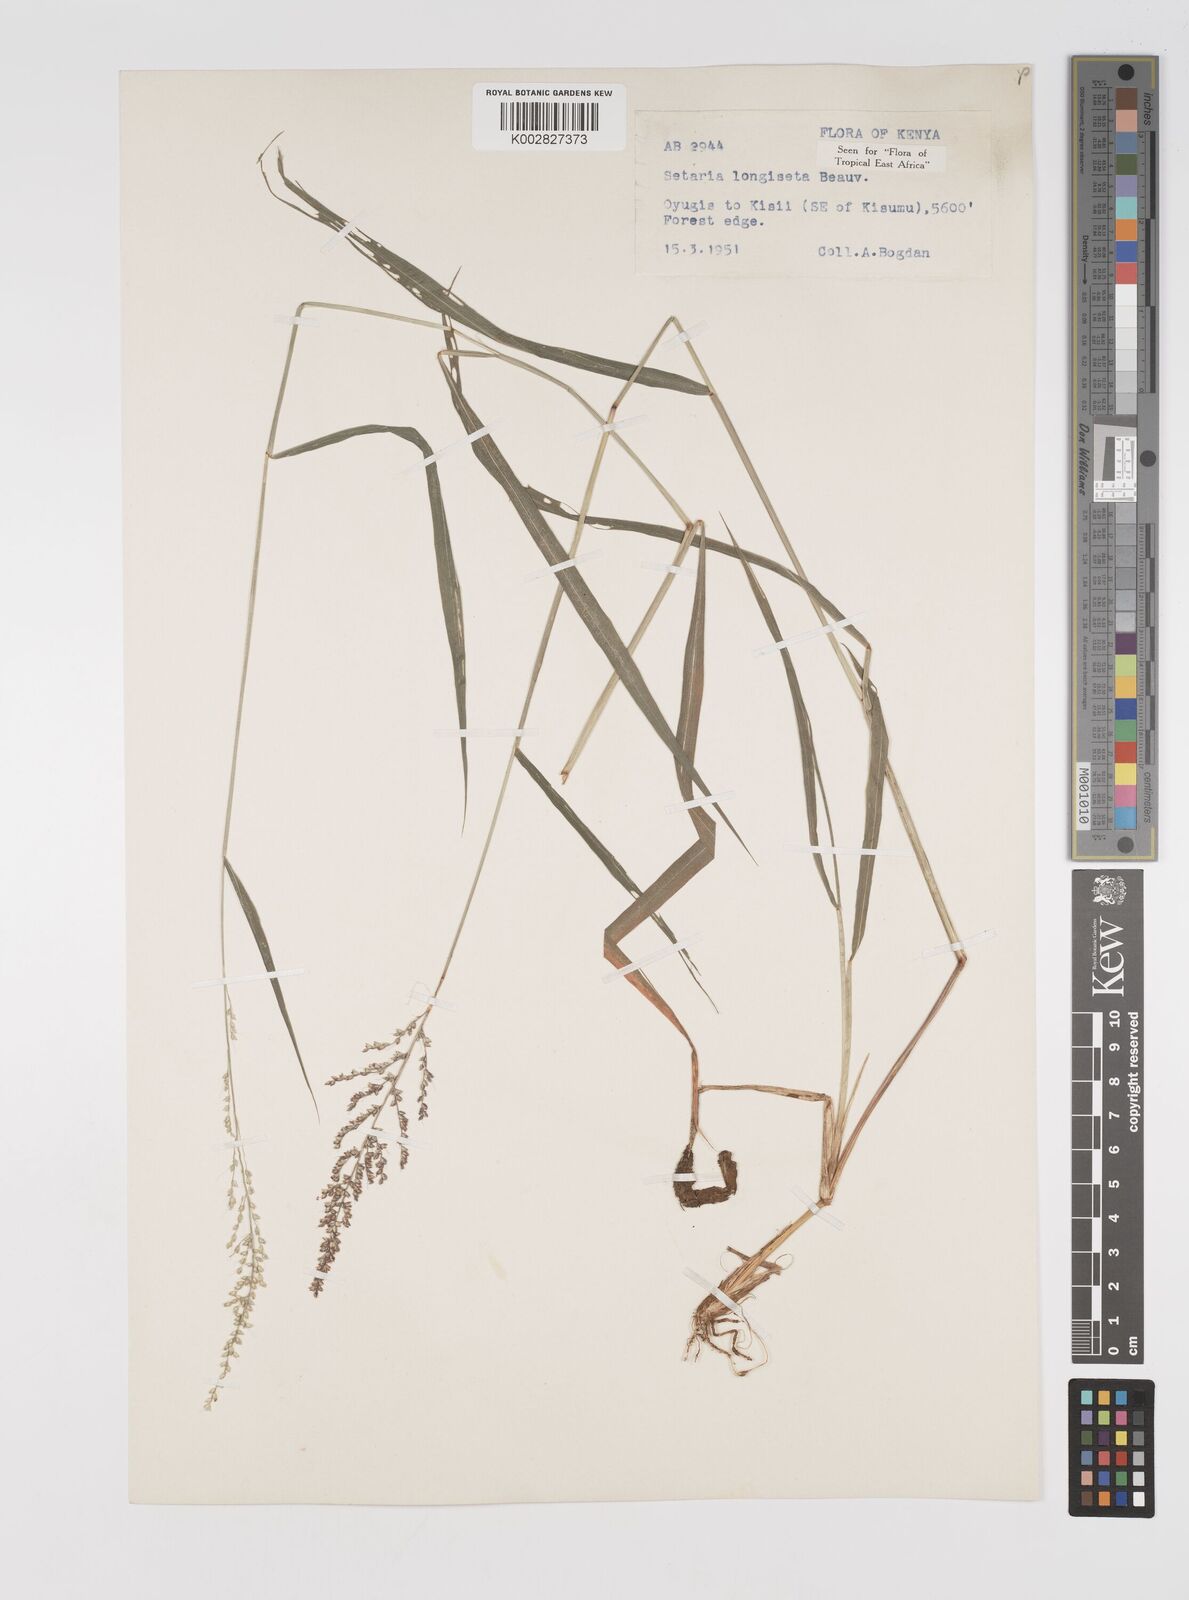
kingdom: Plantae
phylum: Tracheophyta
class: Liliopsida
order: Poales
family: Poaceae
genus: Setaria
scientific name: Setaria longiseta
